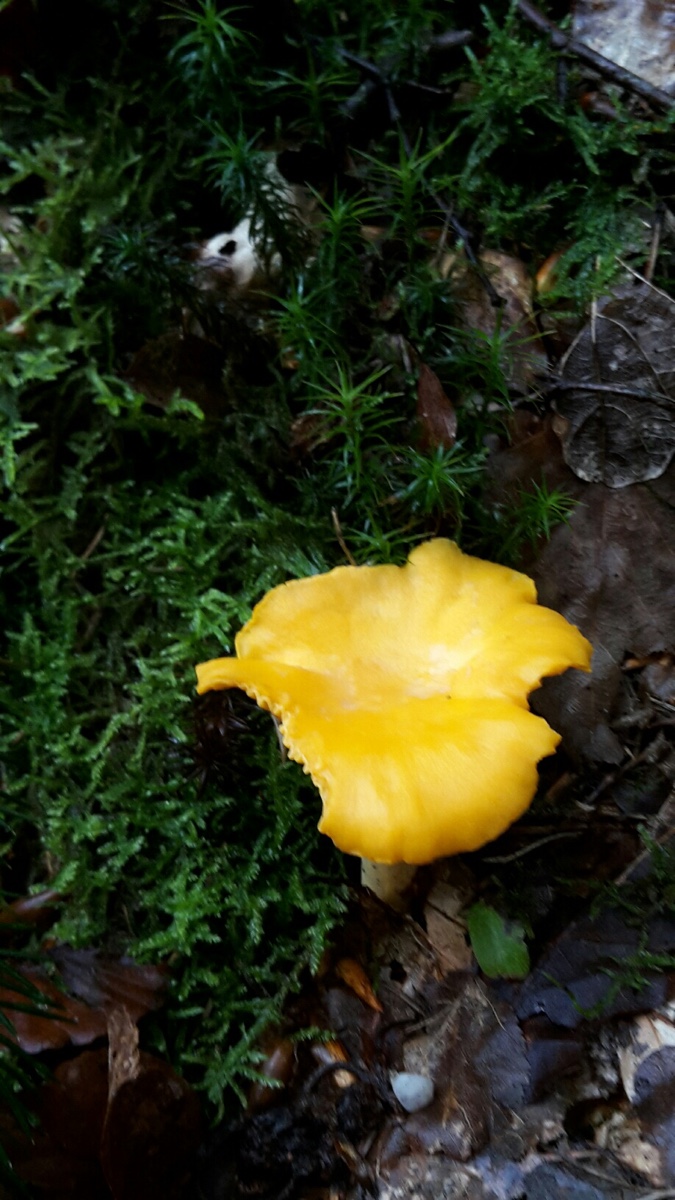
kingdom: Fungi
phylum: Basidiomycota
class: Agaricomycetes
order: Cantharellales
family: Hydnaceae
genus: Cantharellus
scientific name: Cantharellus cibarius
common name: almindelig kantarel
